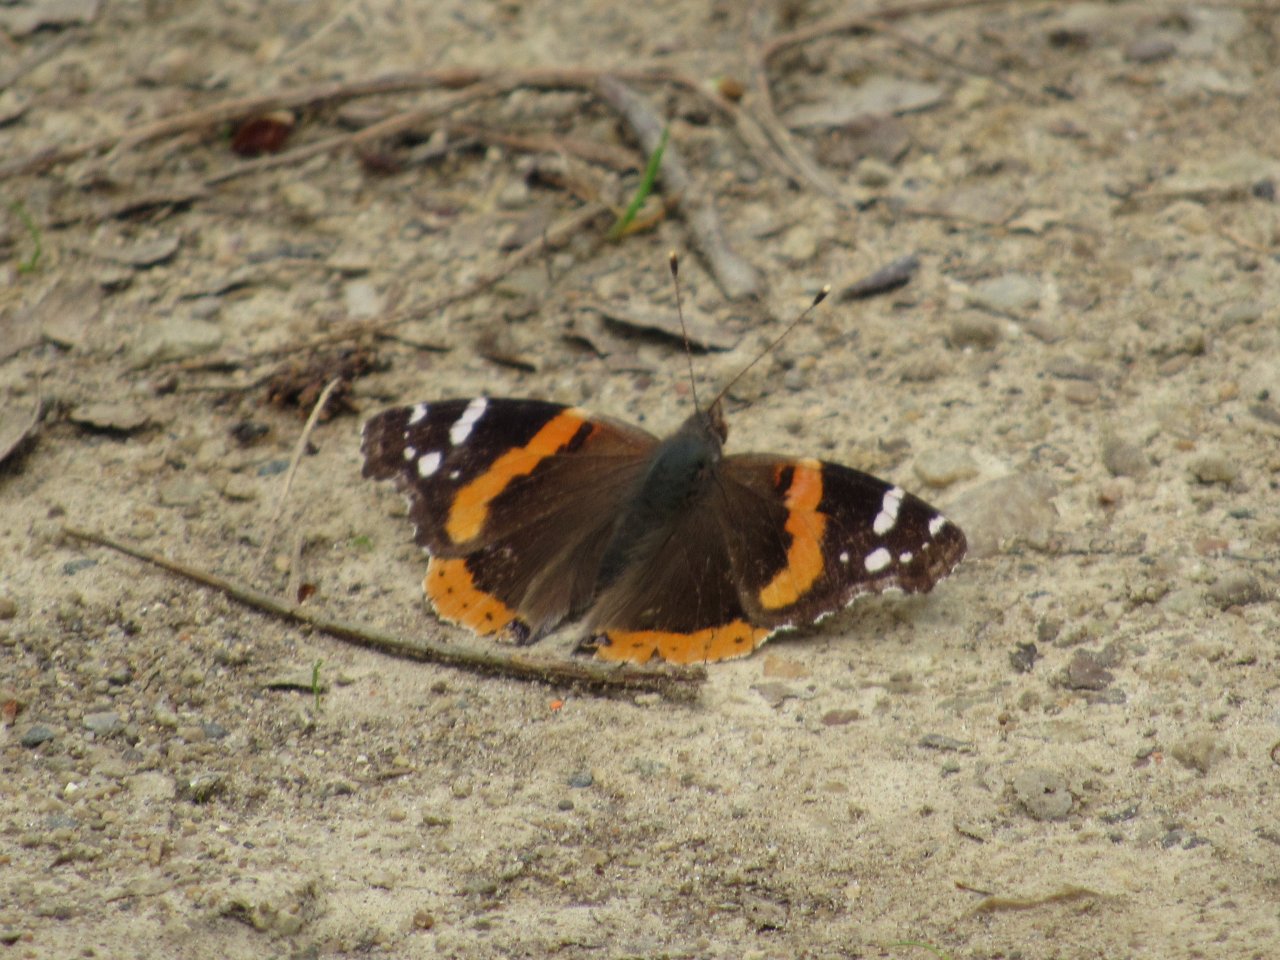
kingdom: Animalia
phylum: Arthropoda
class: Insecta
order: Lepidoptera
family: Nymphalidae
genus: Vanessa
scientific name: Vanessa atalanta
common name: Red Admiral
